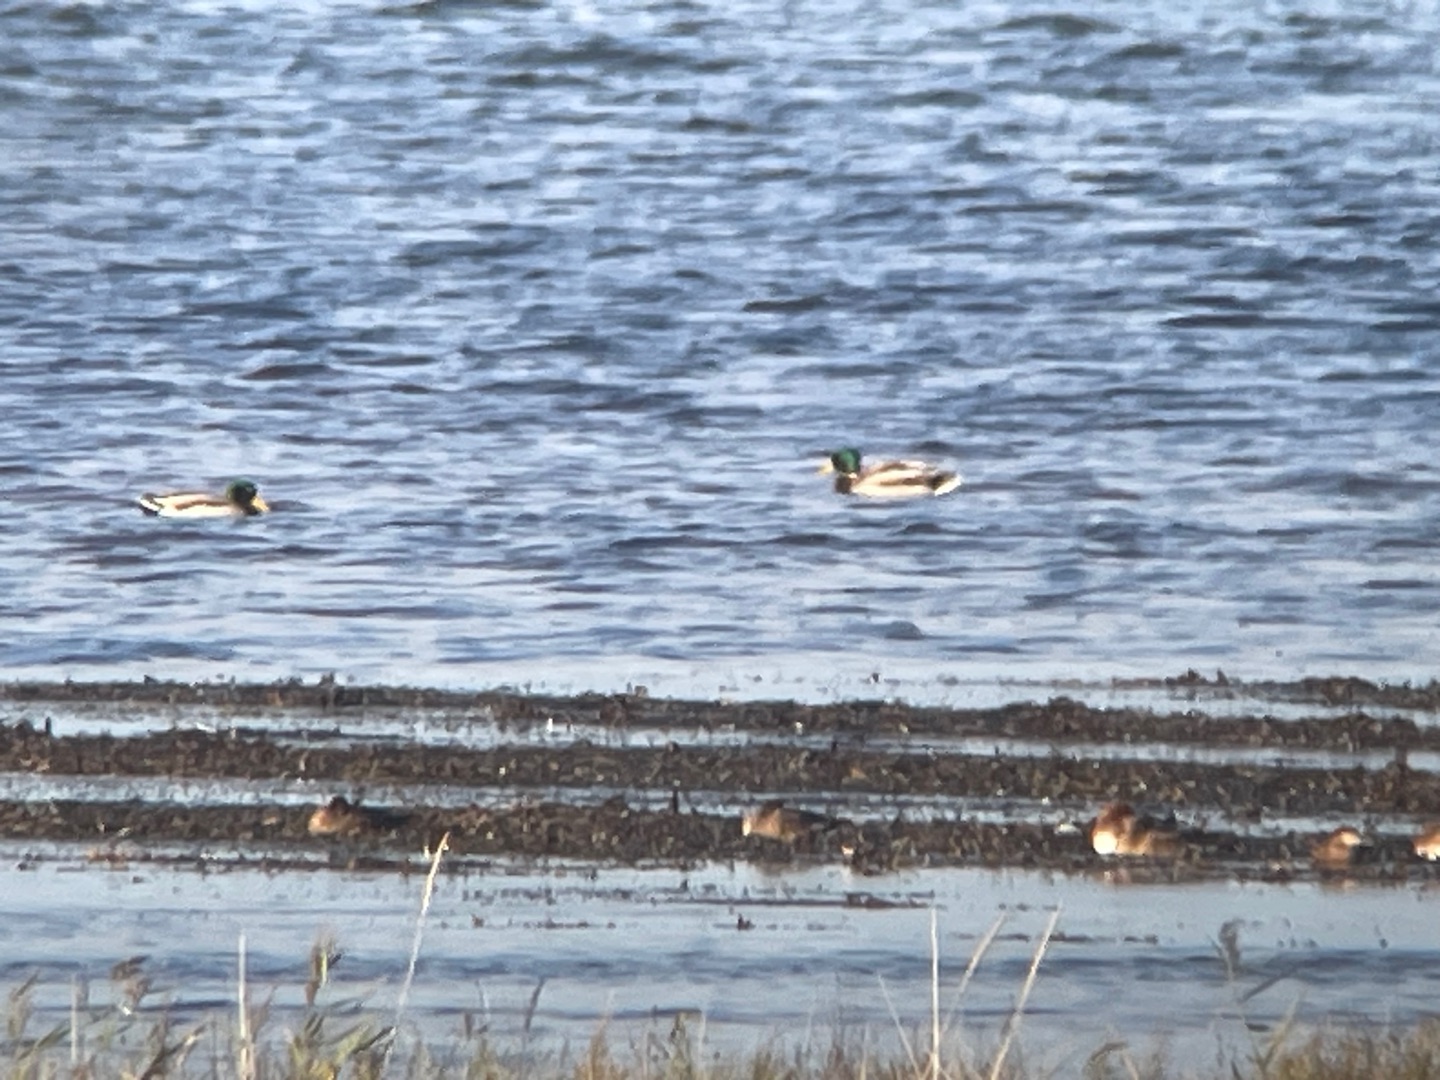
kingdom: Animalia
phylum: Chordata
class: Aves
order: Anseriformes
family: Anatidae
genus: Anas
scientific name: Anas platyrhynchos
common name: Gråand
